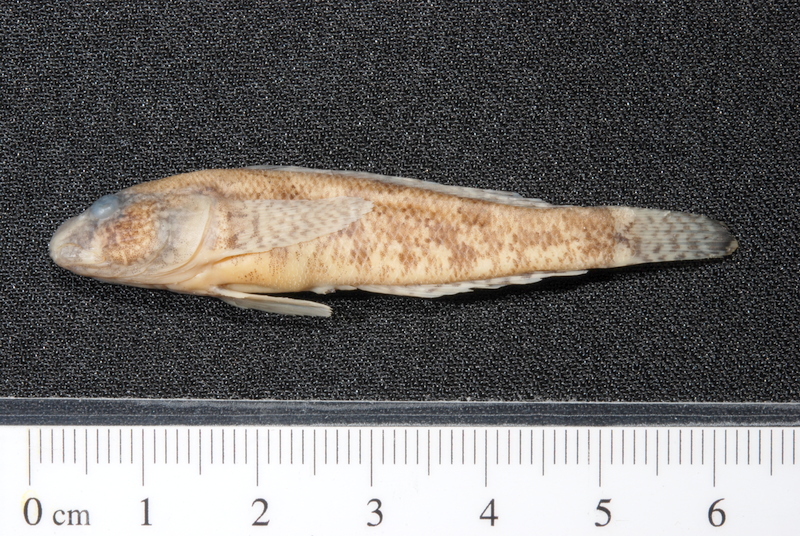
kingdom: Animalia
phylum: Chordata
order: Perciformes
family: Gobiidae
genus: Proterorhinus
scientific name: Proterorhinus semilunaris
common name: Western tubenose goby
